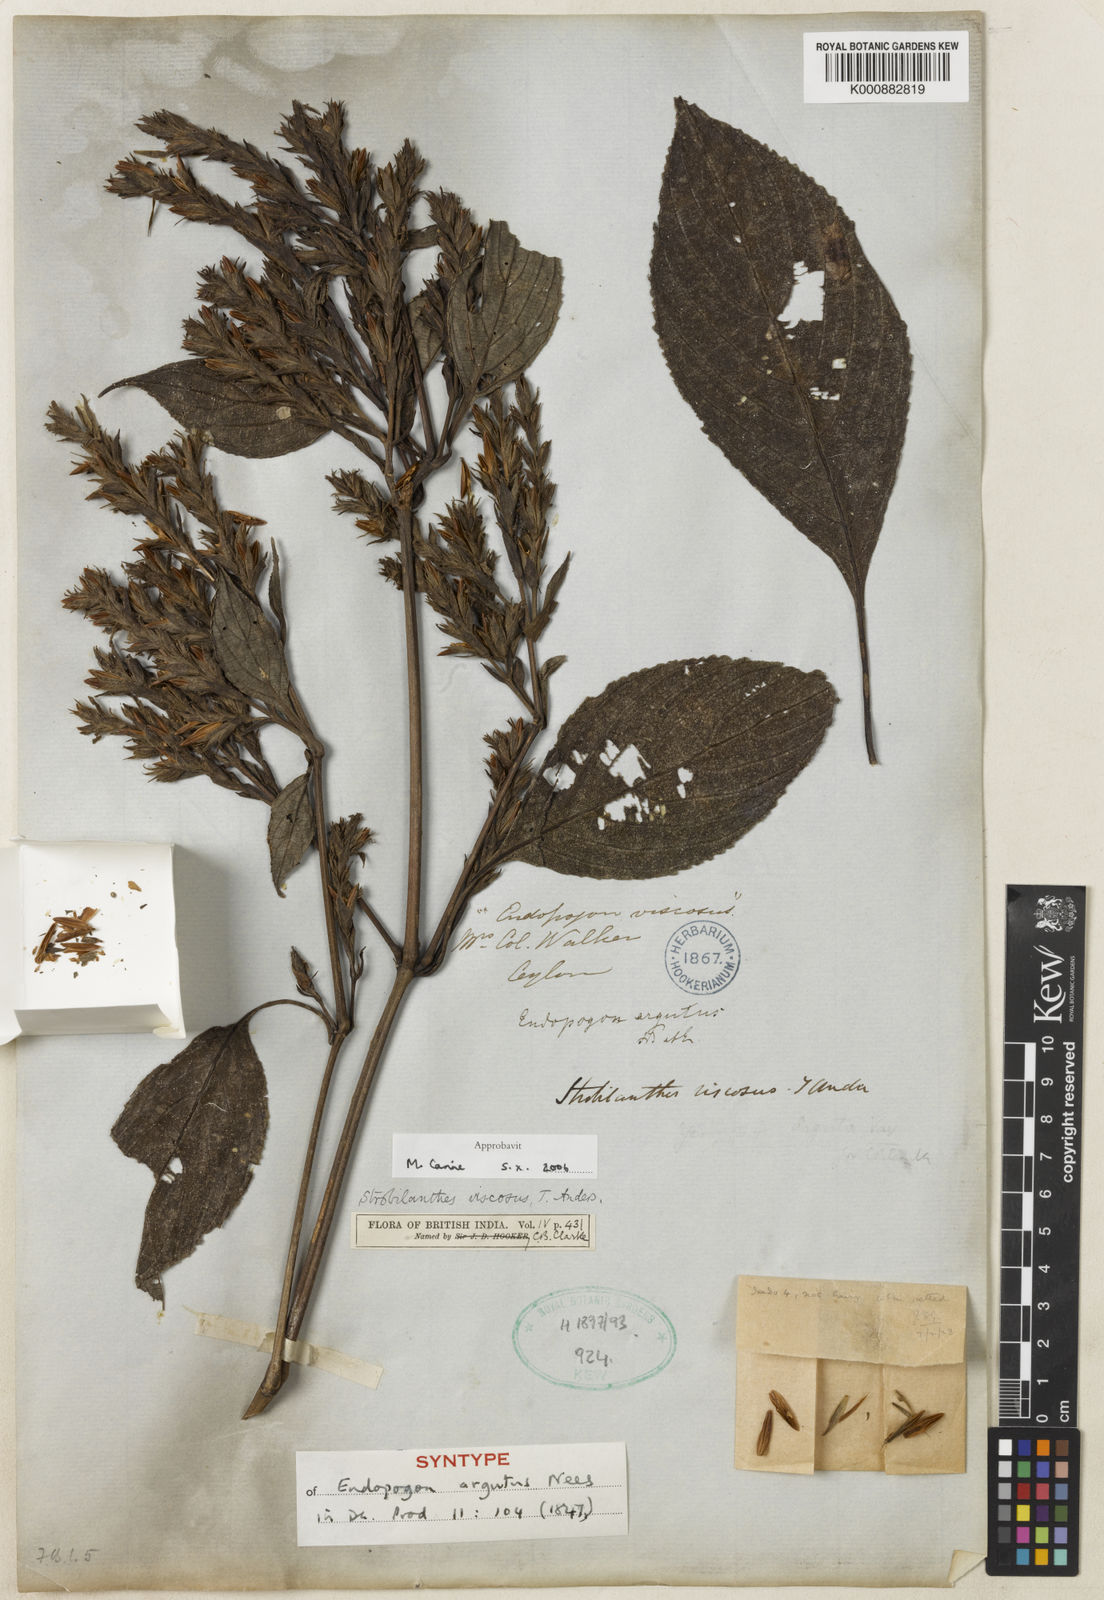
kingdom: Plantae
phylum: Tracheophyta
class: Magnoliopsida
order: Lamiales
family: Acanthaceae
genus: Strobilanthes
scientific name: Strobilanthes viscosa
